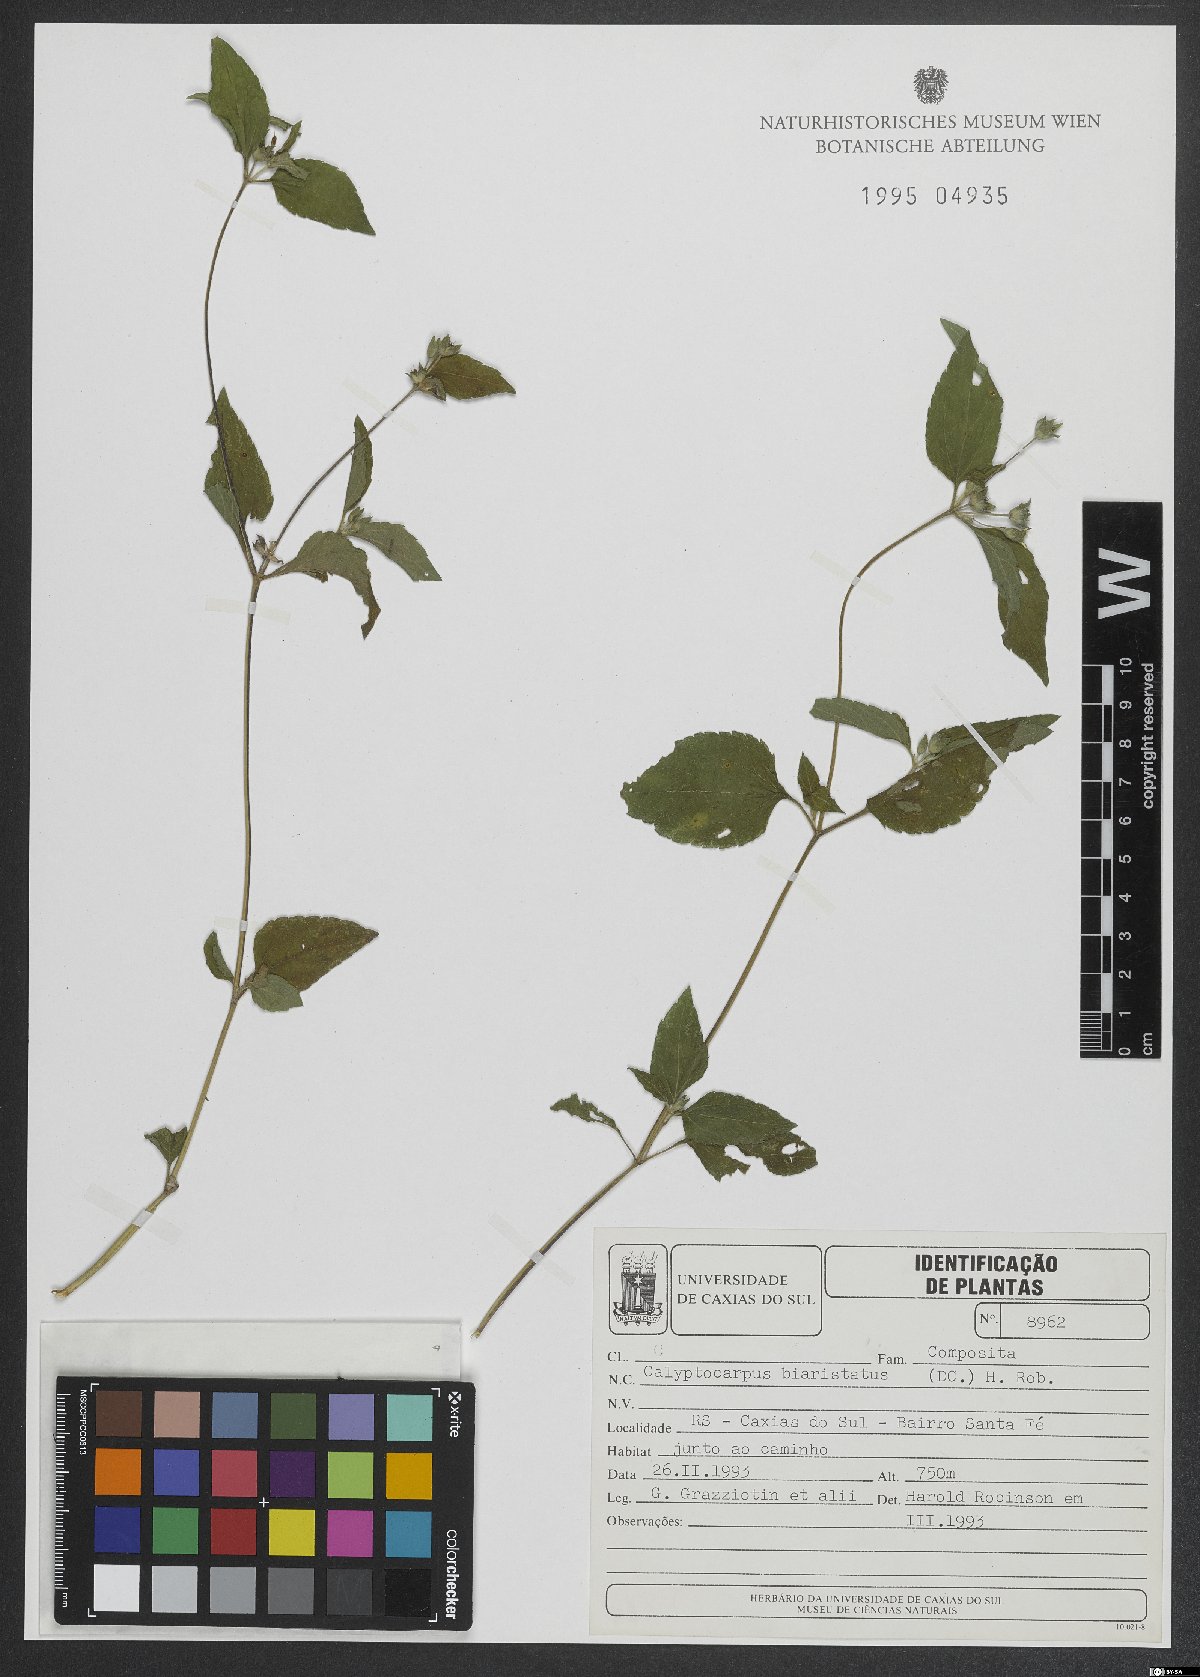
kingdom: Plantae
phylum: Tracheophyta
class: Magnoliopsida
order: Asterales
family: Asteraceae
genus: Calyptocarpus
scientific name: Calyptocarpus brasiliensis
